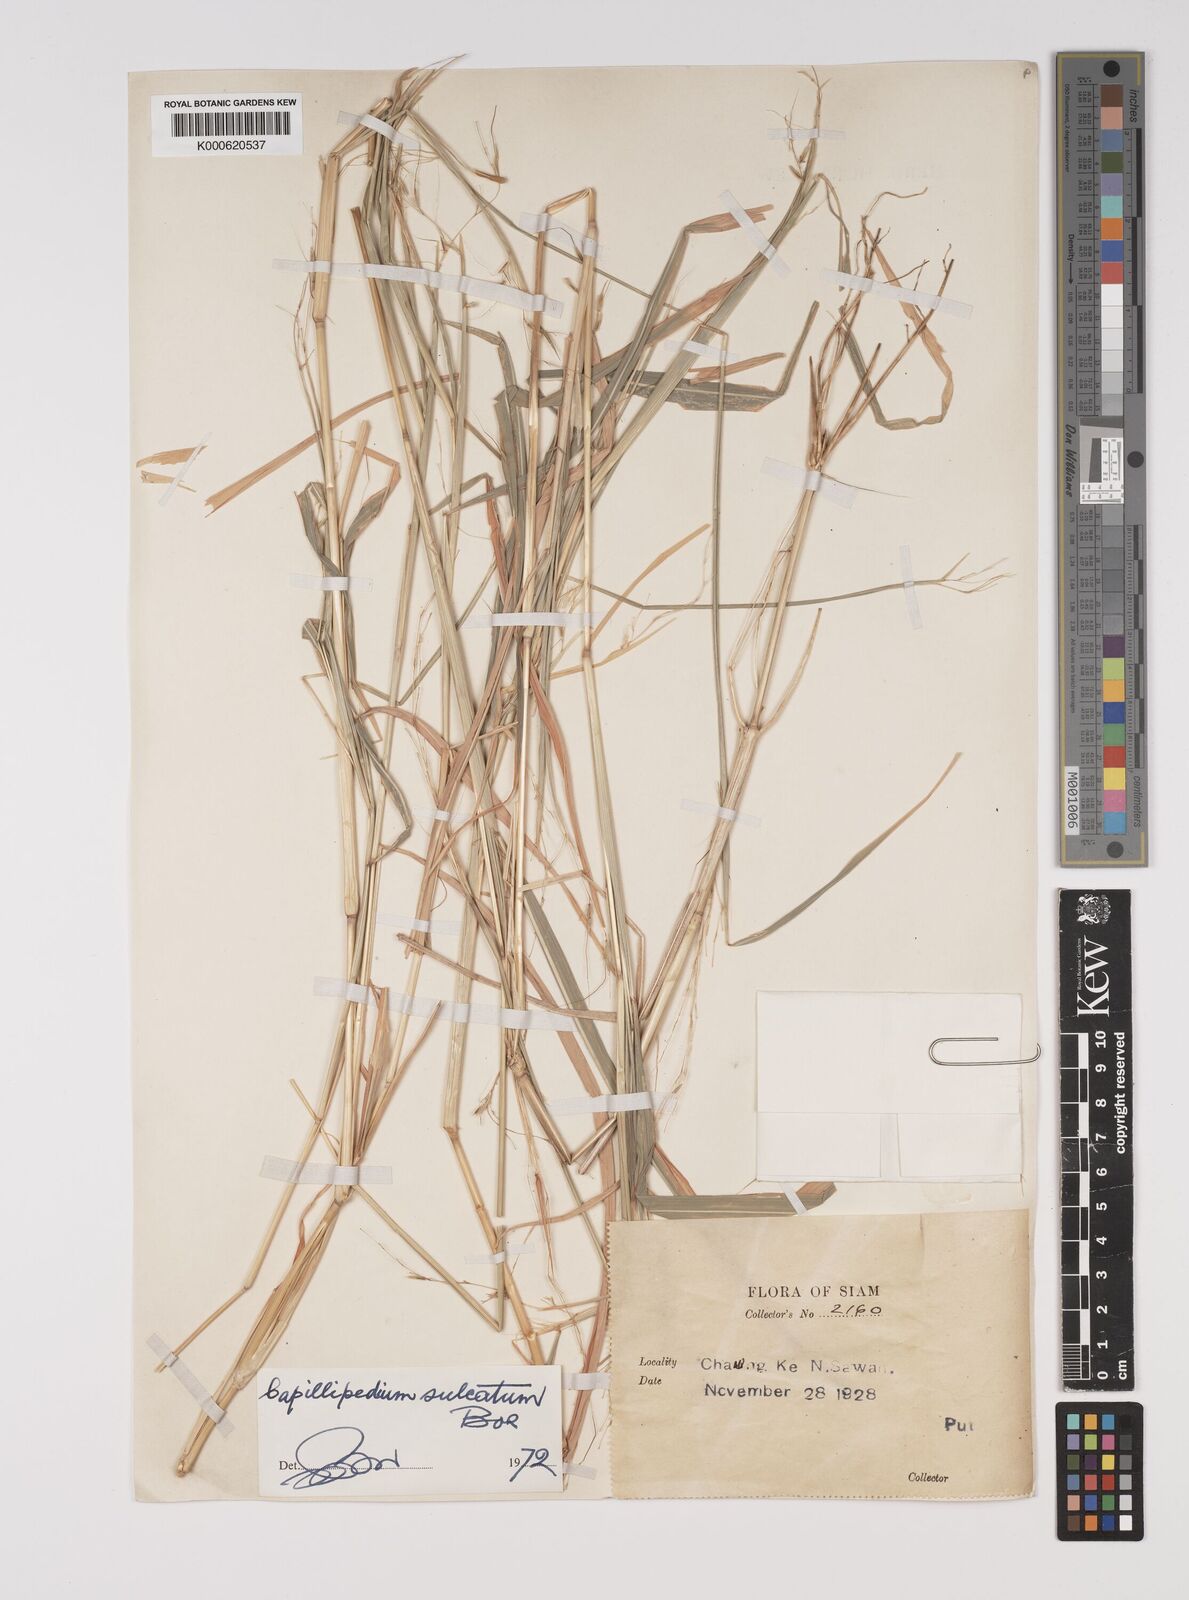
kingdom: Plantae
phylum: Tracheophyta
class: Liliopsida
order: Poales
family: Poaceae
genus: Capillipedium
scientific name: Capillipedium sulcatum
